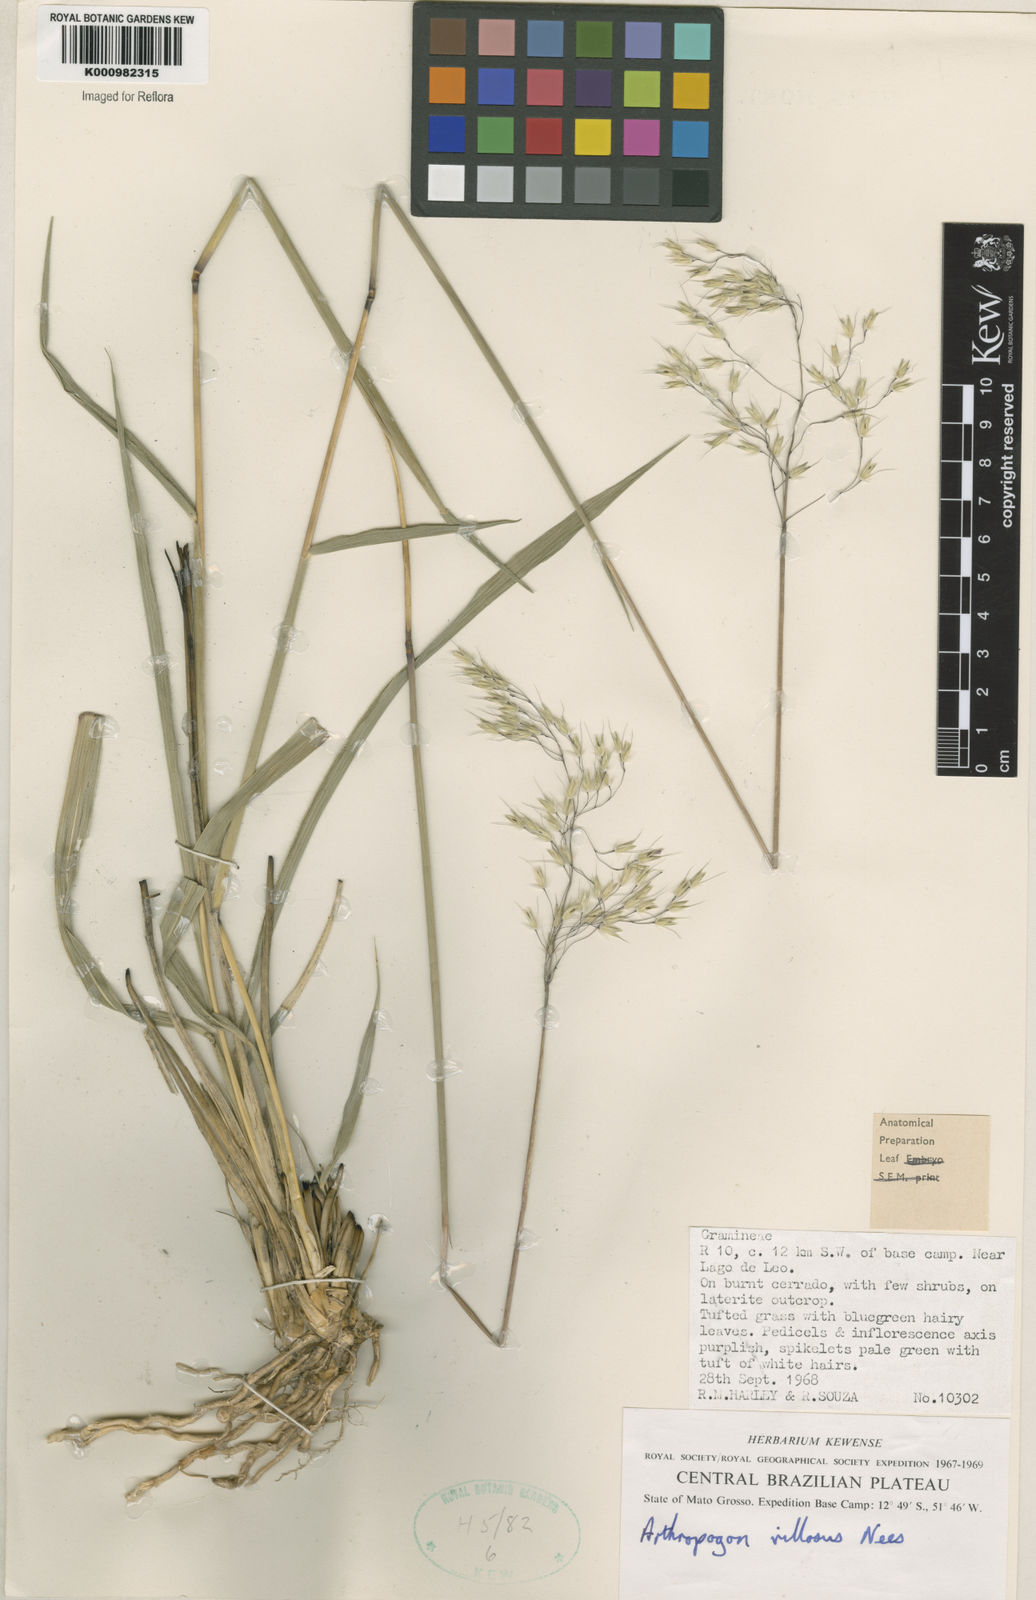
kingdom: Plantae
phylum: Tracheophyta
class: Liliopsida
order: Poales
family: Poaceae
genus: Arthropogon
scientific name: Arthropogon villosus
